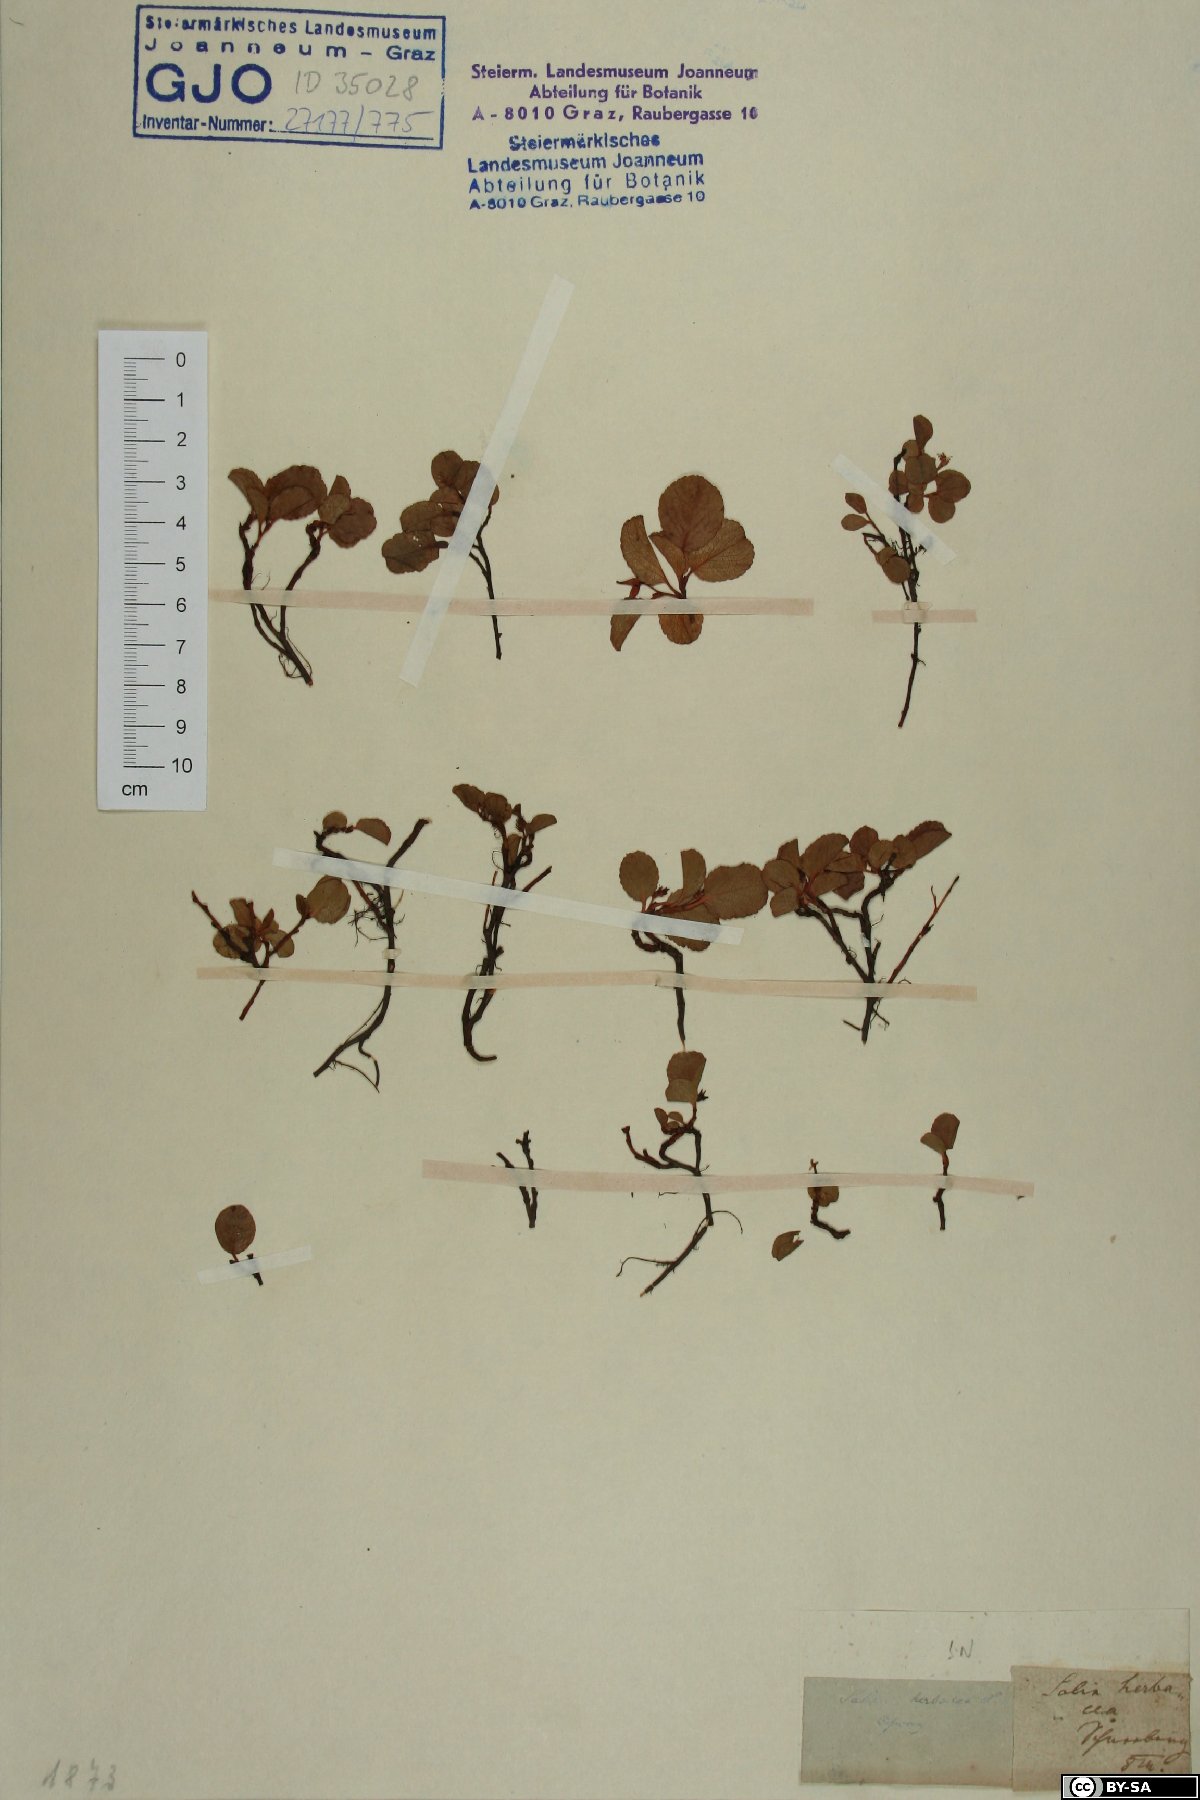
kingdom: Plantae
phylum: Tracheophyta
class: Magnoliopsida
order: Malpighiales
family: Salicaceae
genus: Salix
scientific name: Salix herbacea
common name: Dwarf willow
